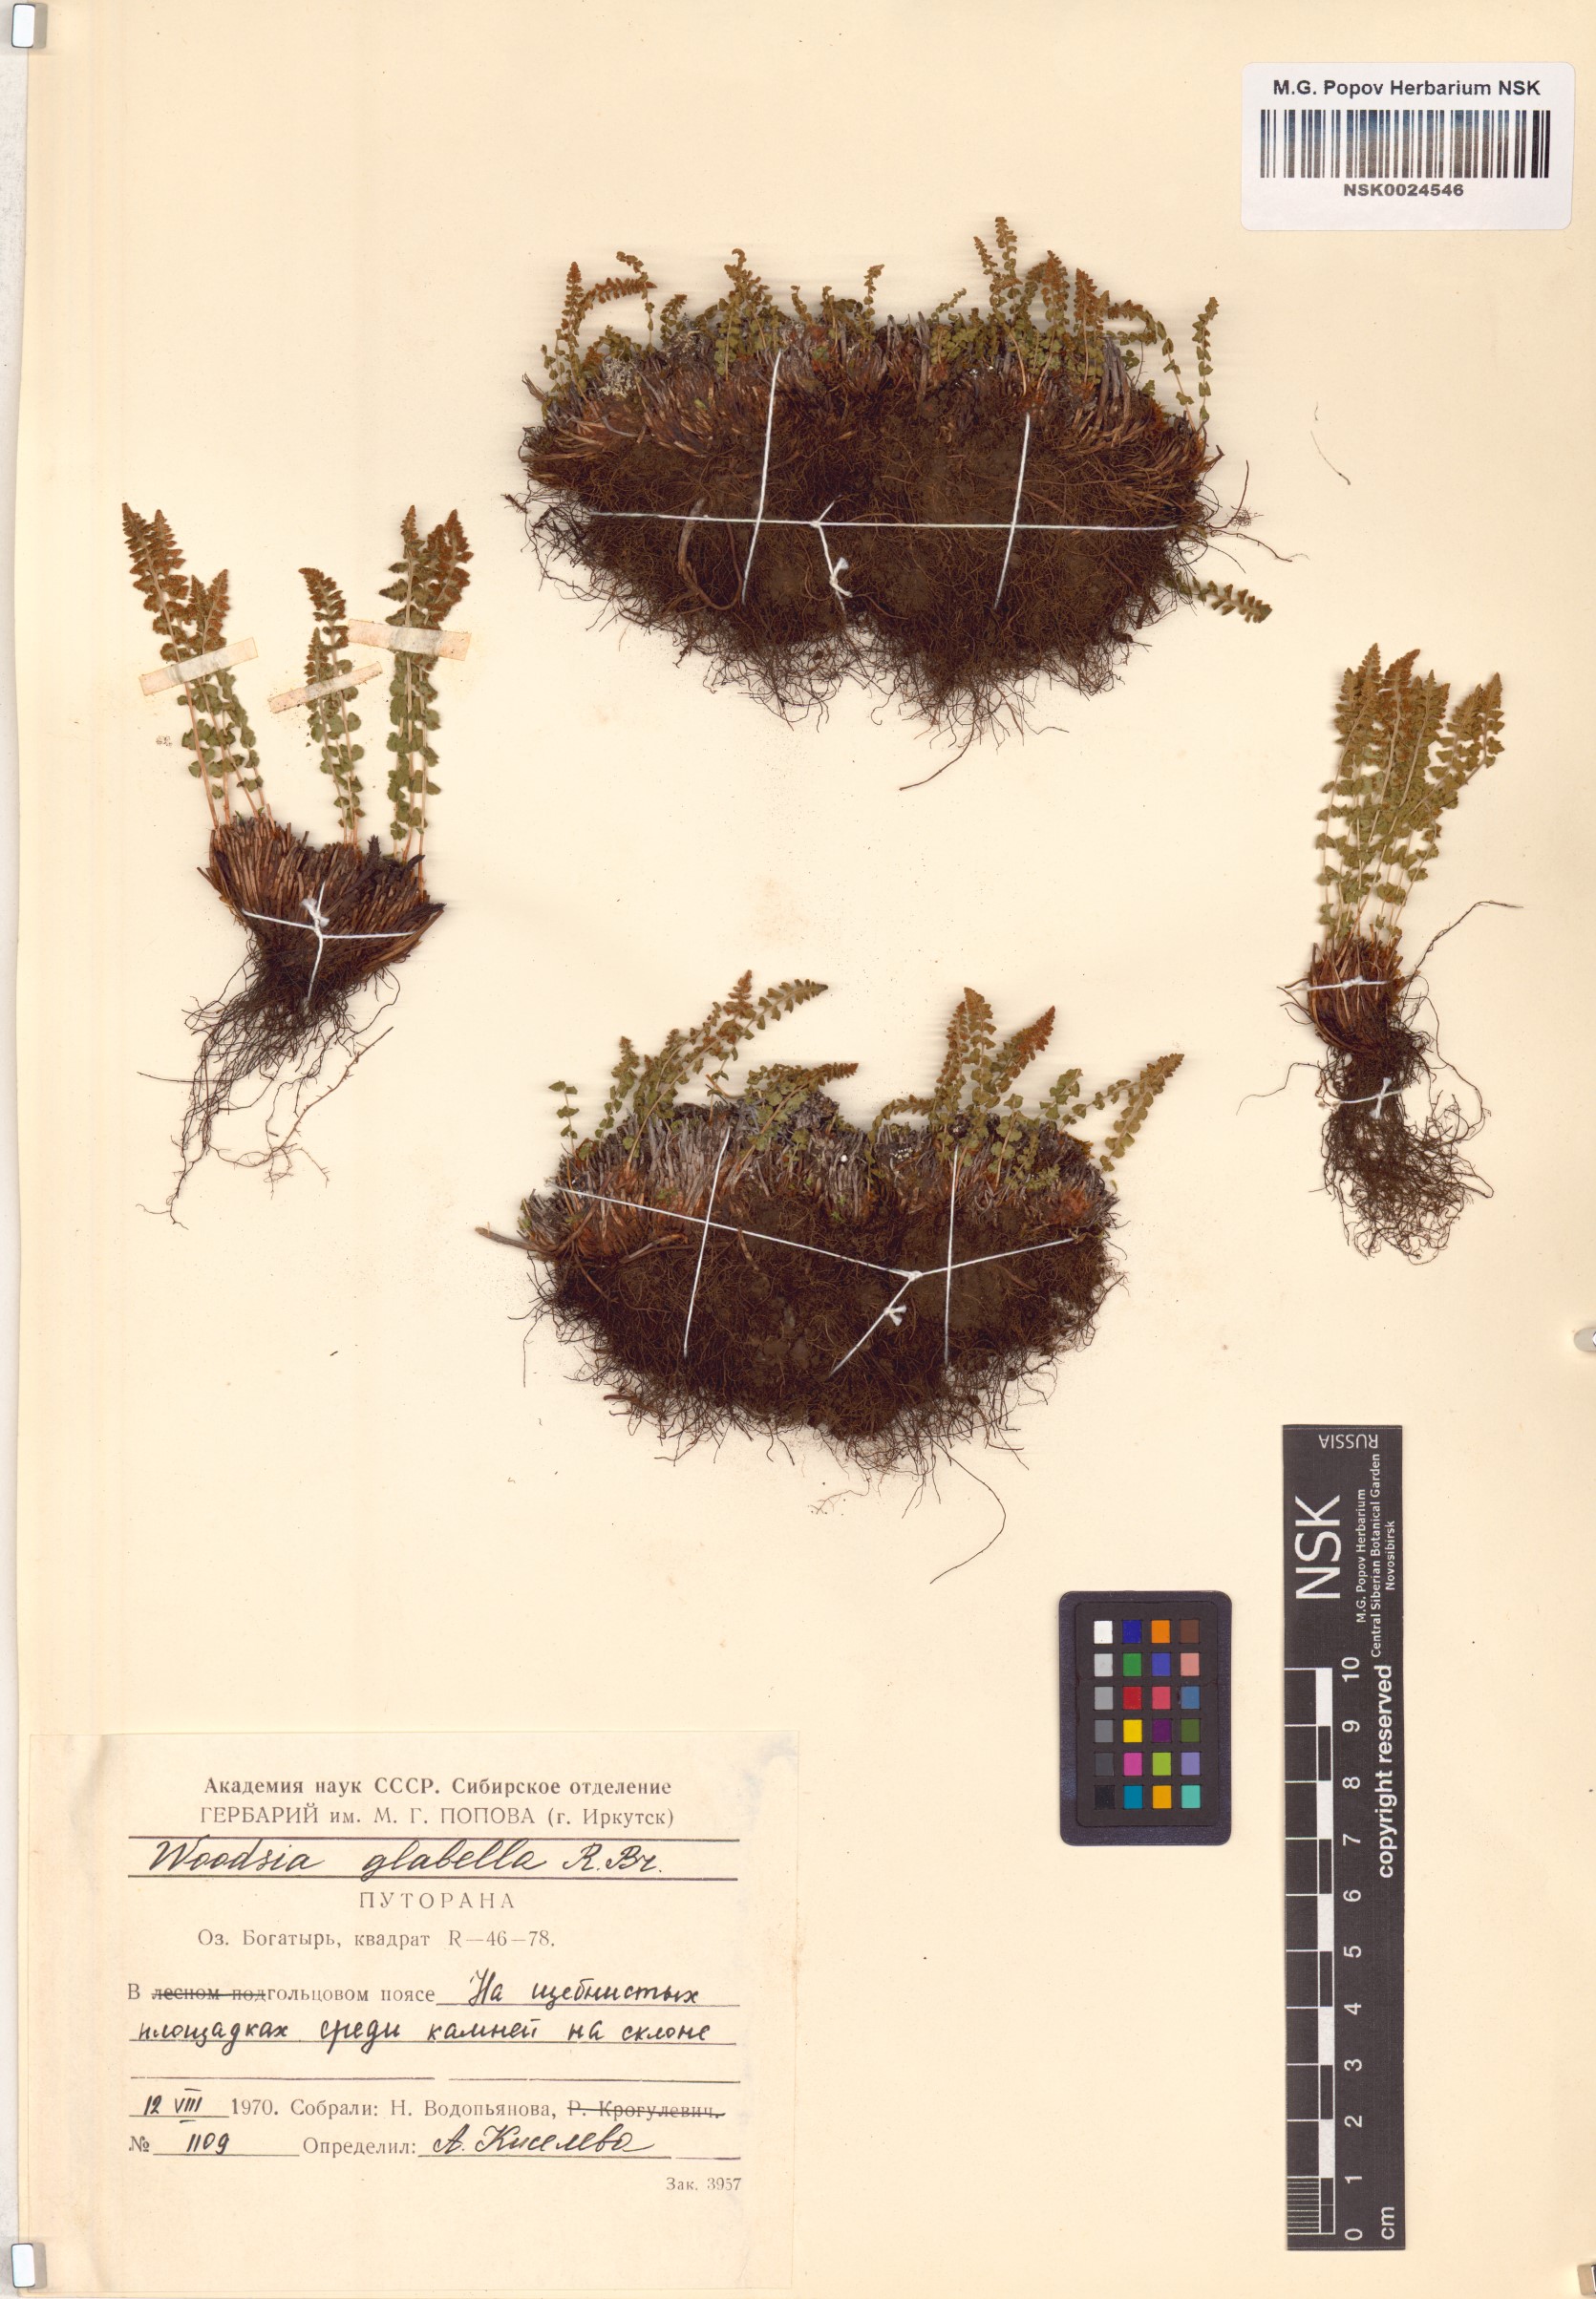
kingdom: Plantae
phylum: Tracheophyta
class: Polypodiopsida
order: Polypodiales
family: Woodsiaceae
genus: Woodsia
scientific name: Woodsia glabella
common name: Smooth woodsia
